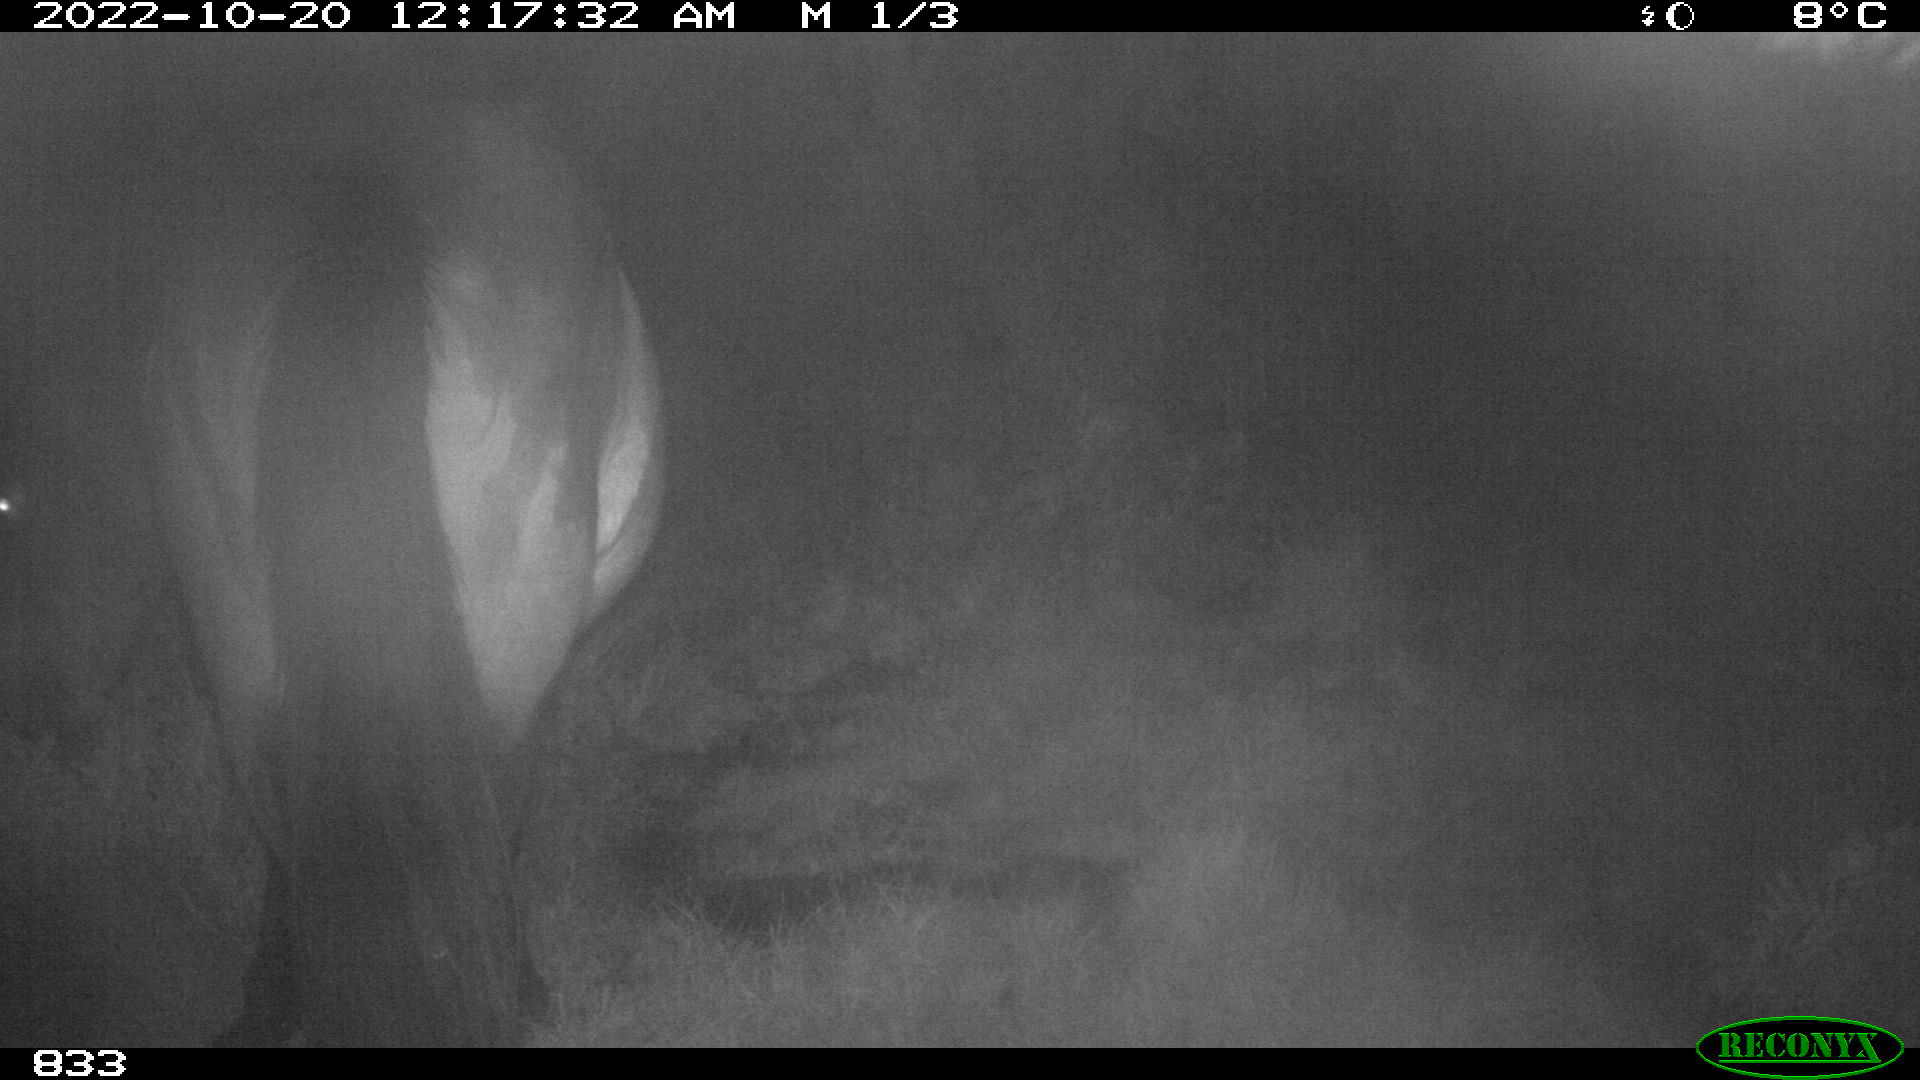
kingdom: Animalia
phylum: Chordata
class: Mammalia
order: Perissodactyla
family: Equidae
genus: Equus
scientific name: Equus caballus
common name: Horse
